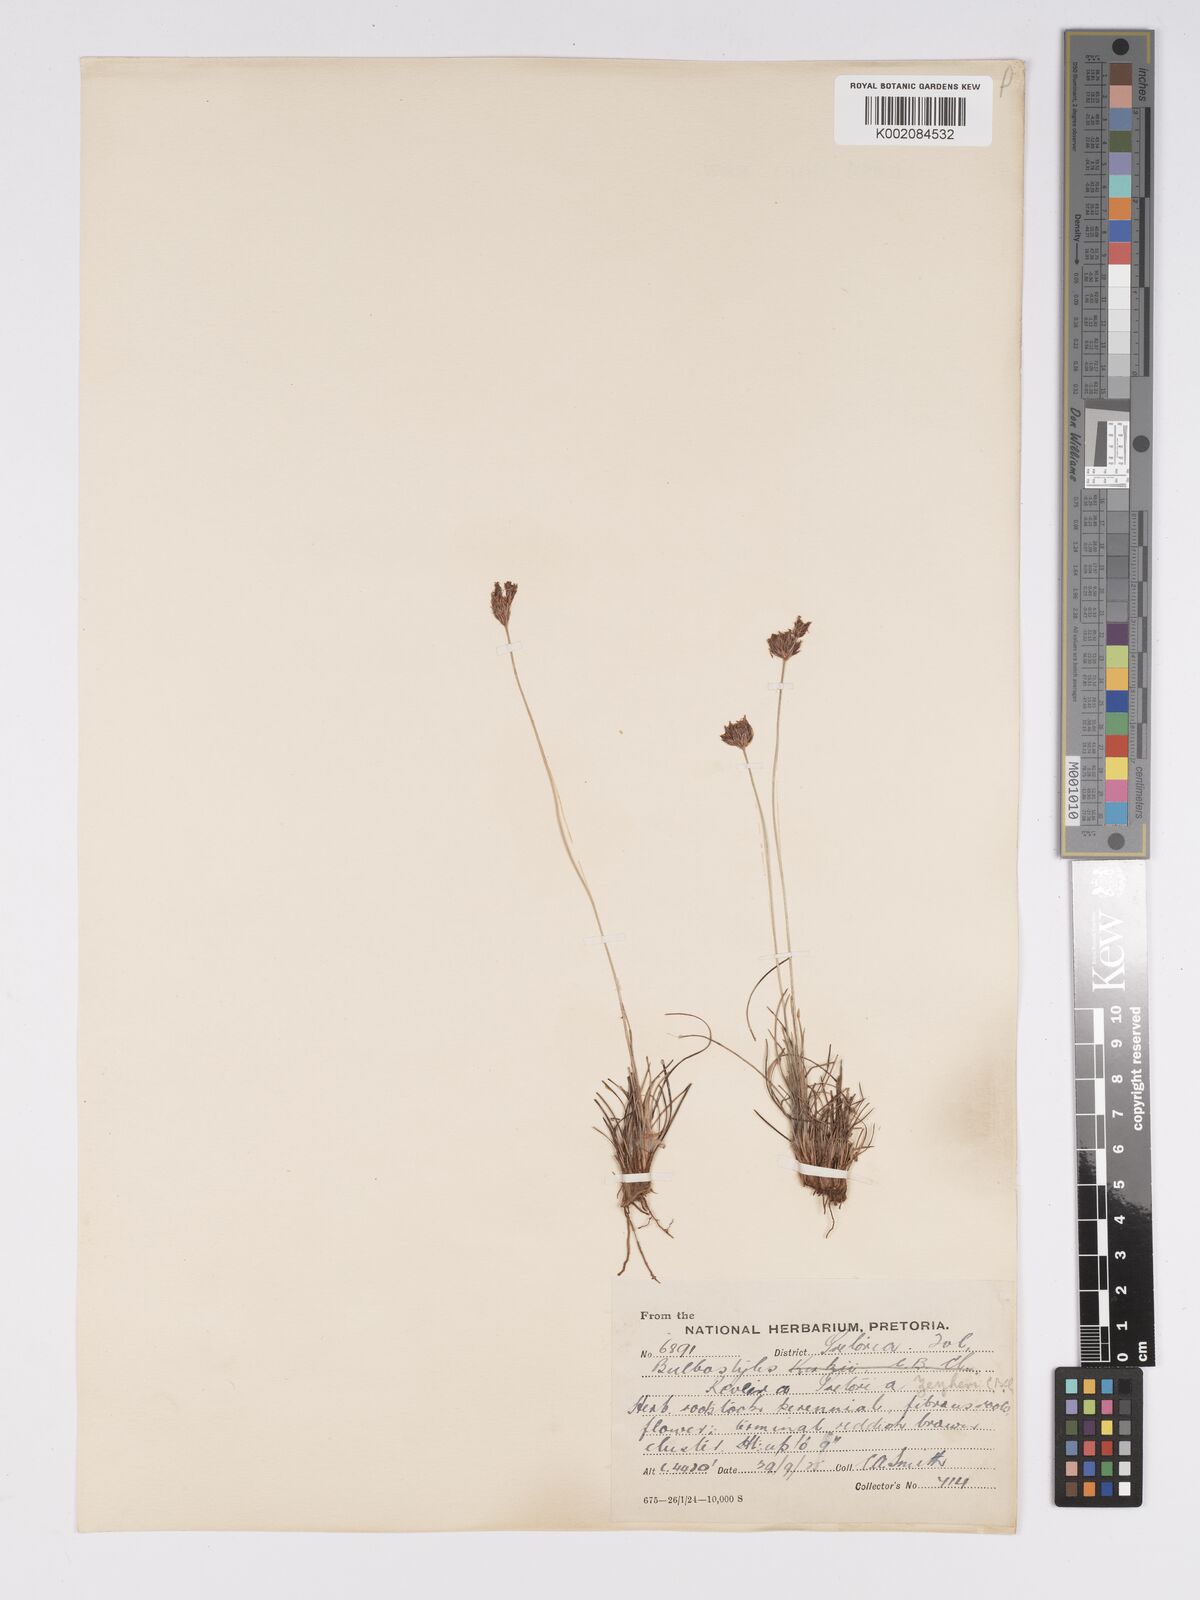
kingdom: Plantae
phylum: Tracheophyta
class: Liliopsida
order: Poales
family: Cyperaceae
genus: Bulbostylis
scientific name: Bulbostylis contexta
